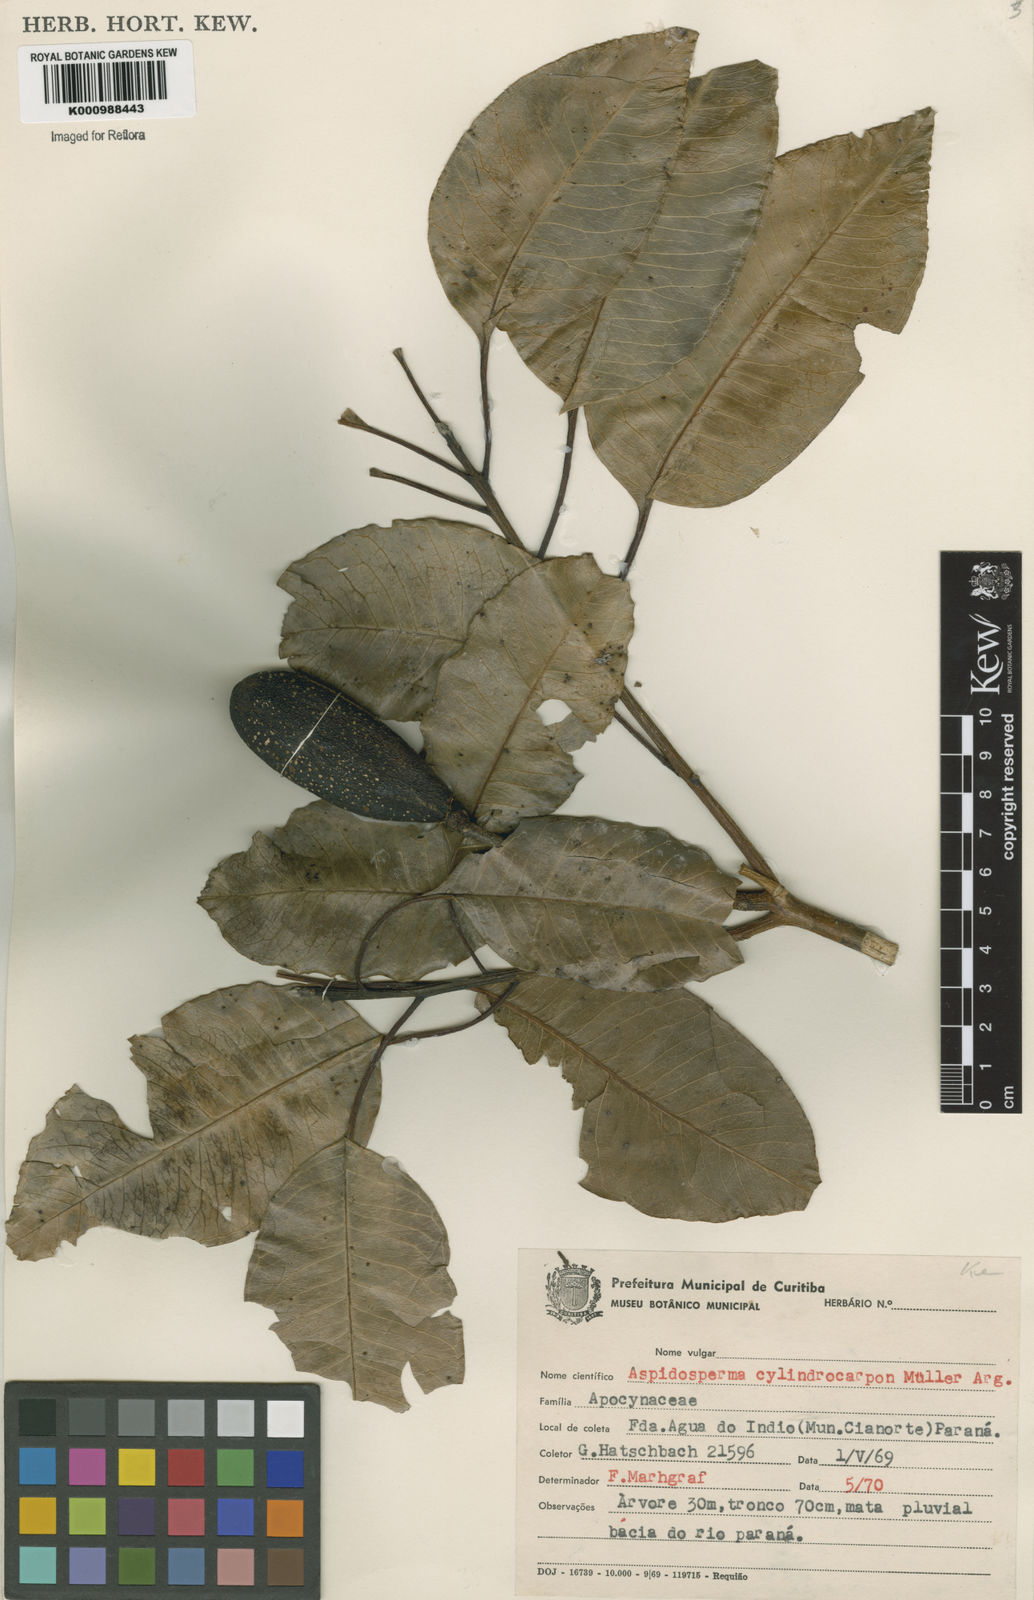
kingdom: Plantae
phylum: Tracheophyta
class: Magnoliopsida
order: Gentianales
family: Apocynaceae
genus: Aspidosperma
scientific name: Aspidosperma
